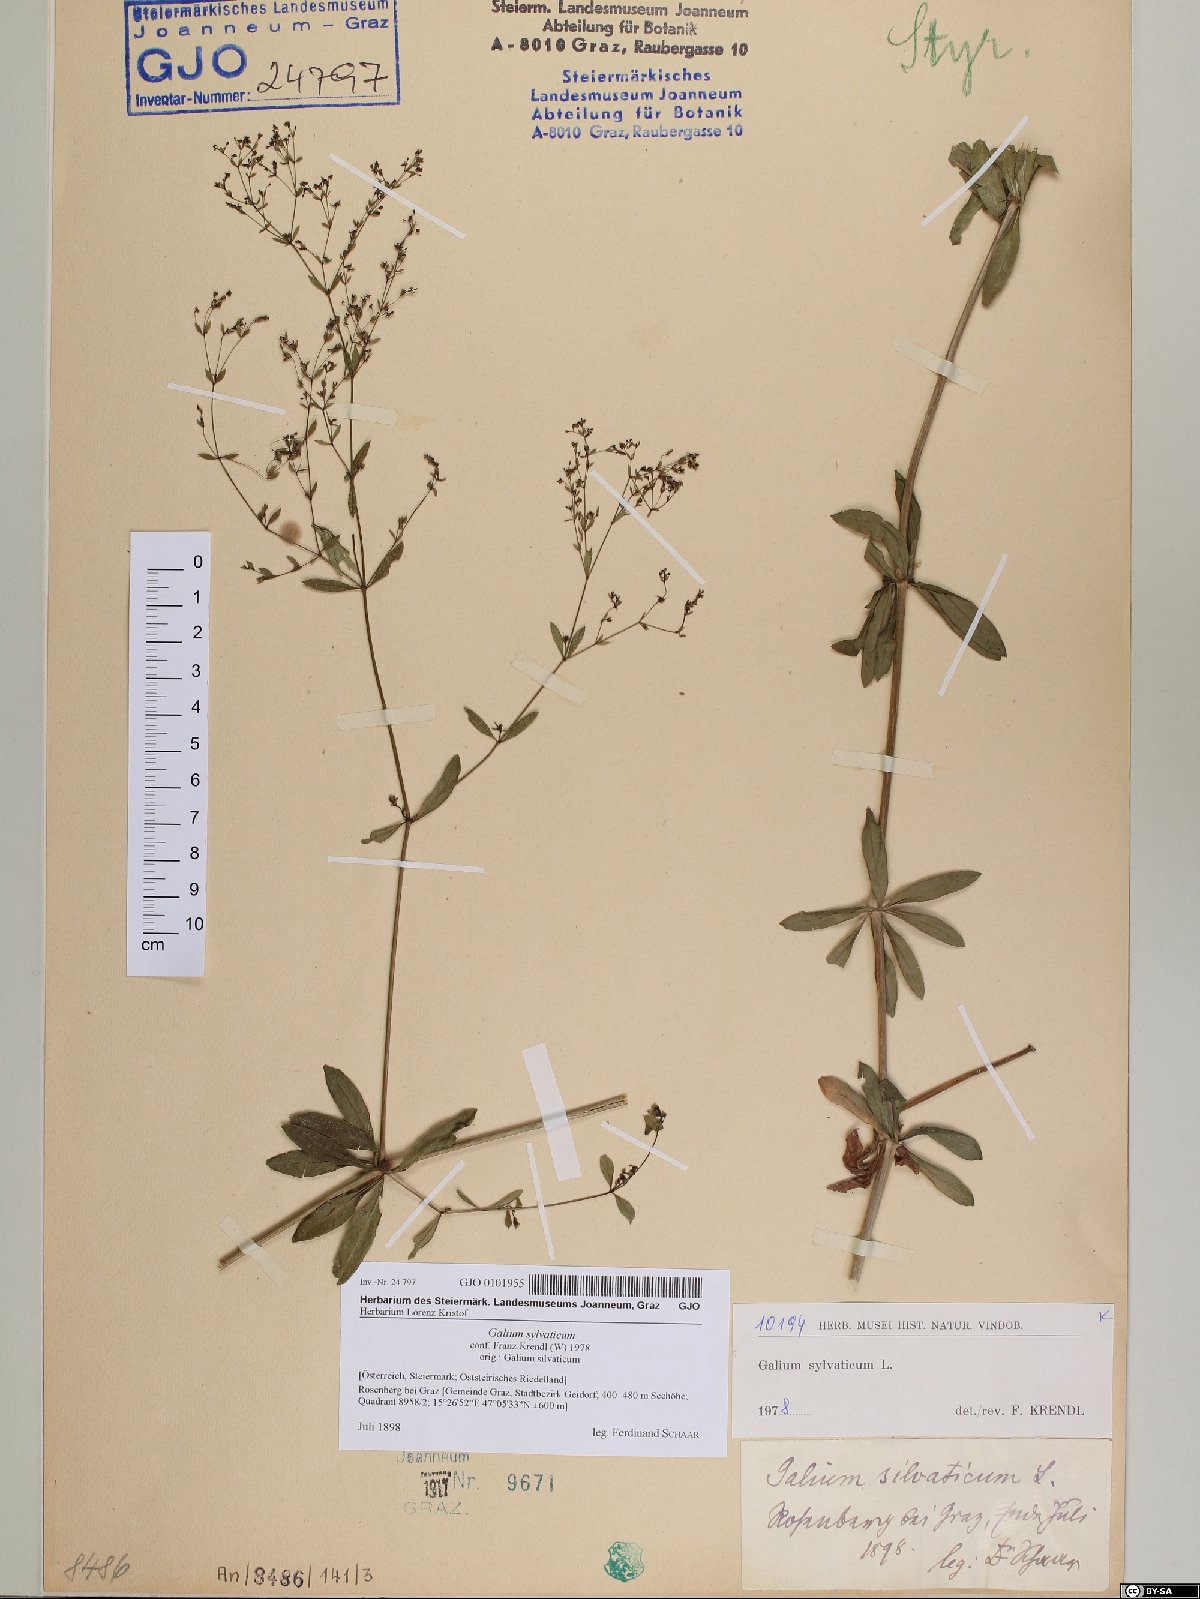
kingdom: Plantae
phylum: Tracheophyta
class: Magnoliopsida
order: Gentianales
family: Rubiaceae
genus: Galium
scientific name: Galium sylvaticum
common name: Wood bedstraw
